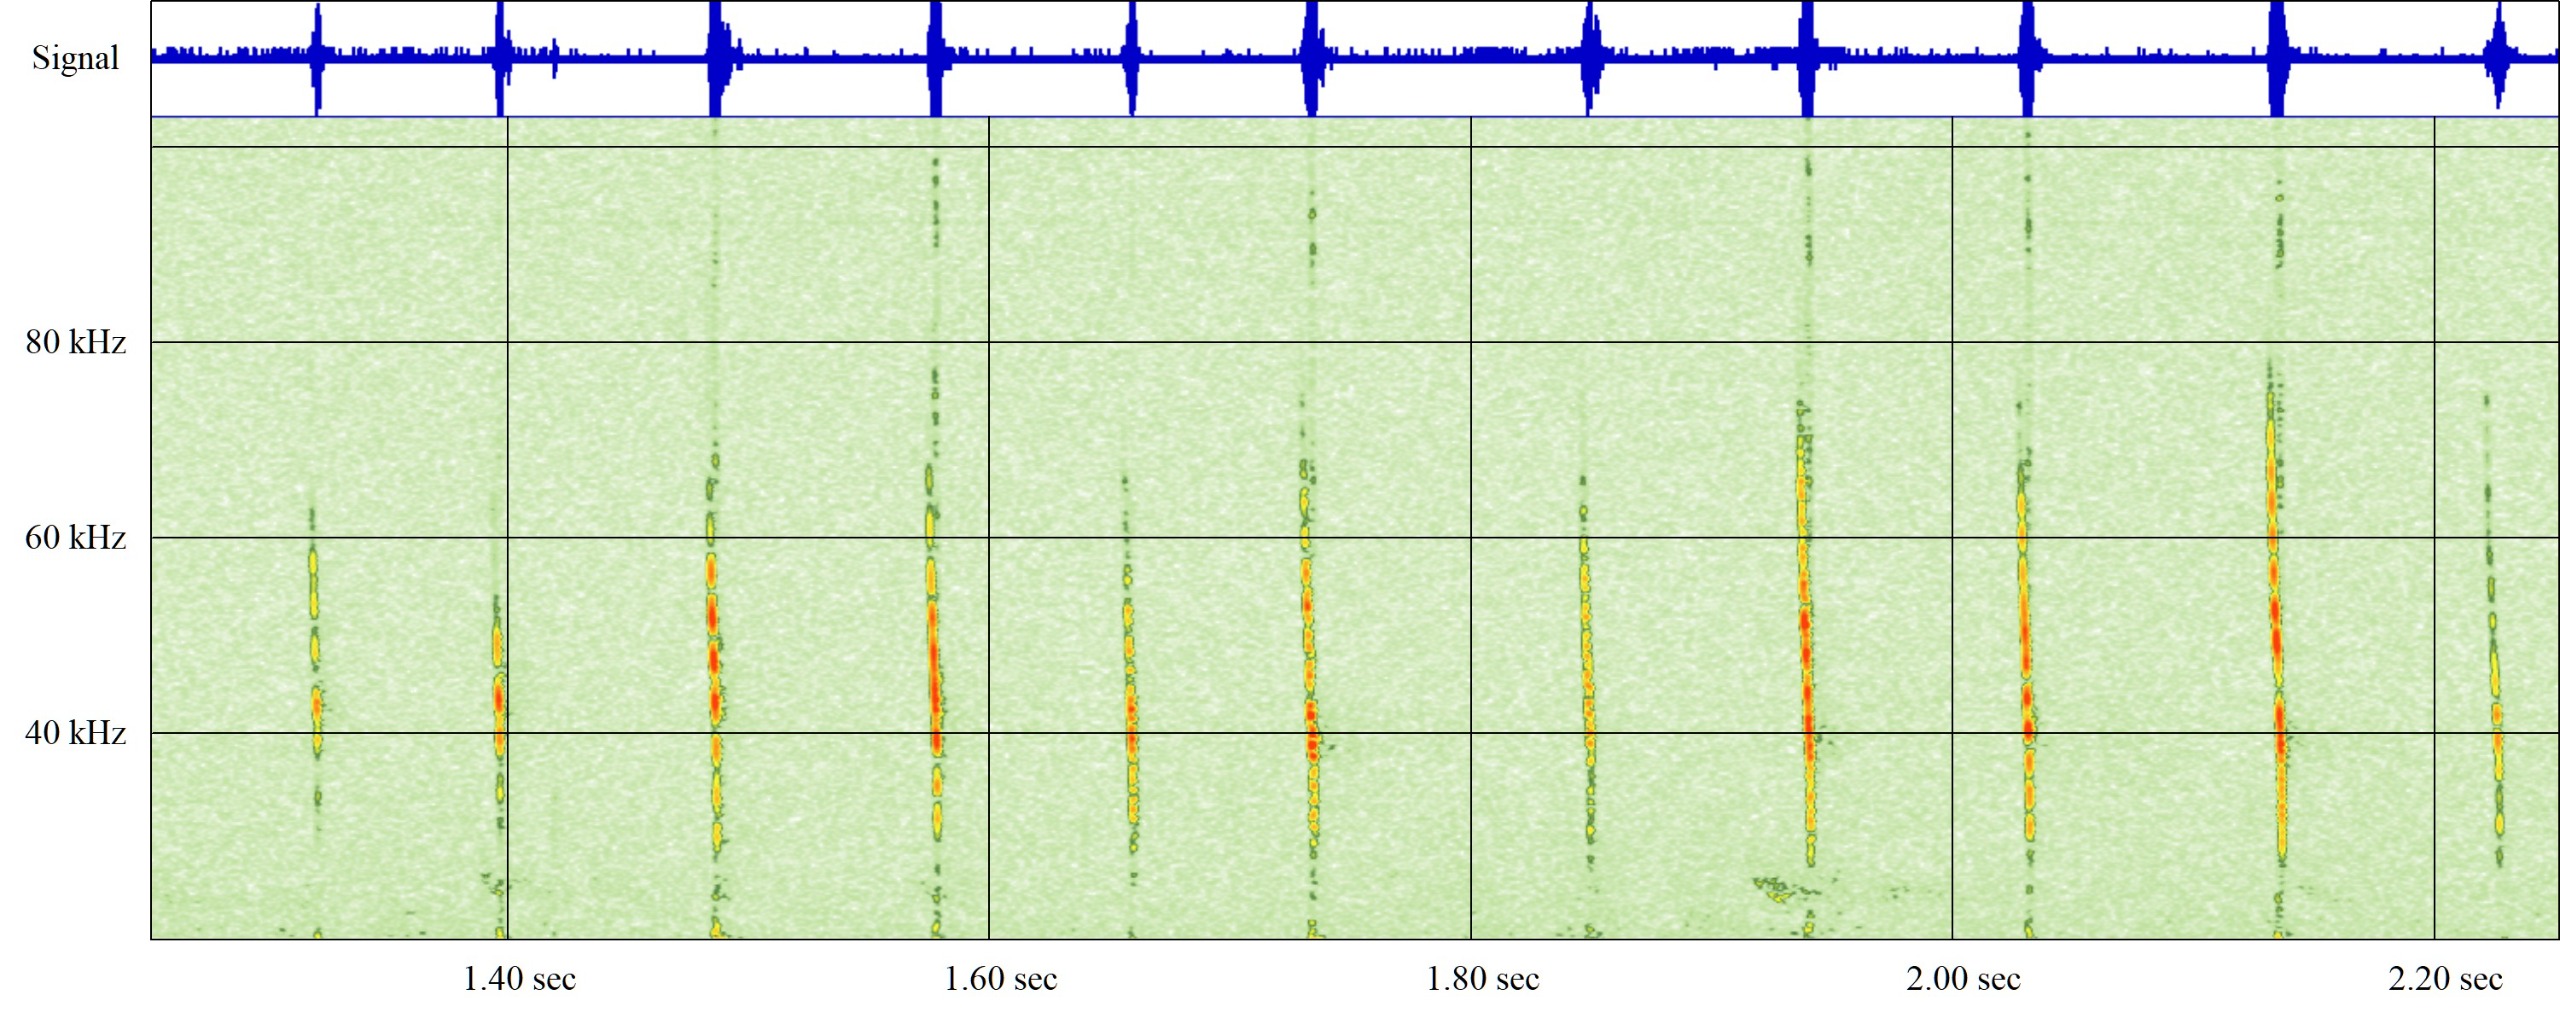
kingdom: Animalia
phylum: Chordata
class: Mammalia
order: Chiroptera
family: Vespertilionidae
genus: Myotis
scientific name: Myotis daubentonii
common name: Vandflagermus
